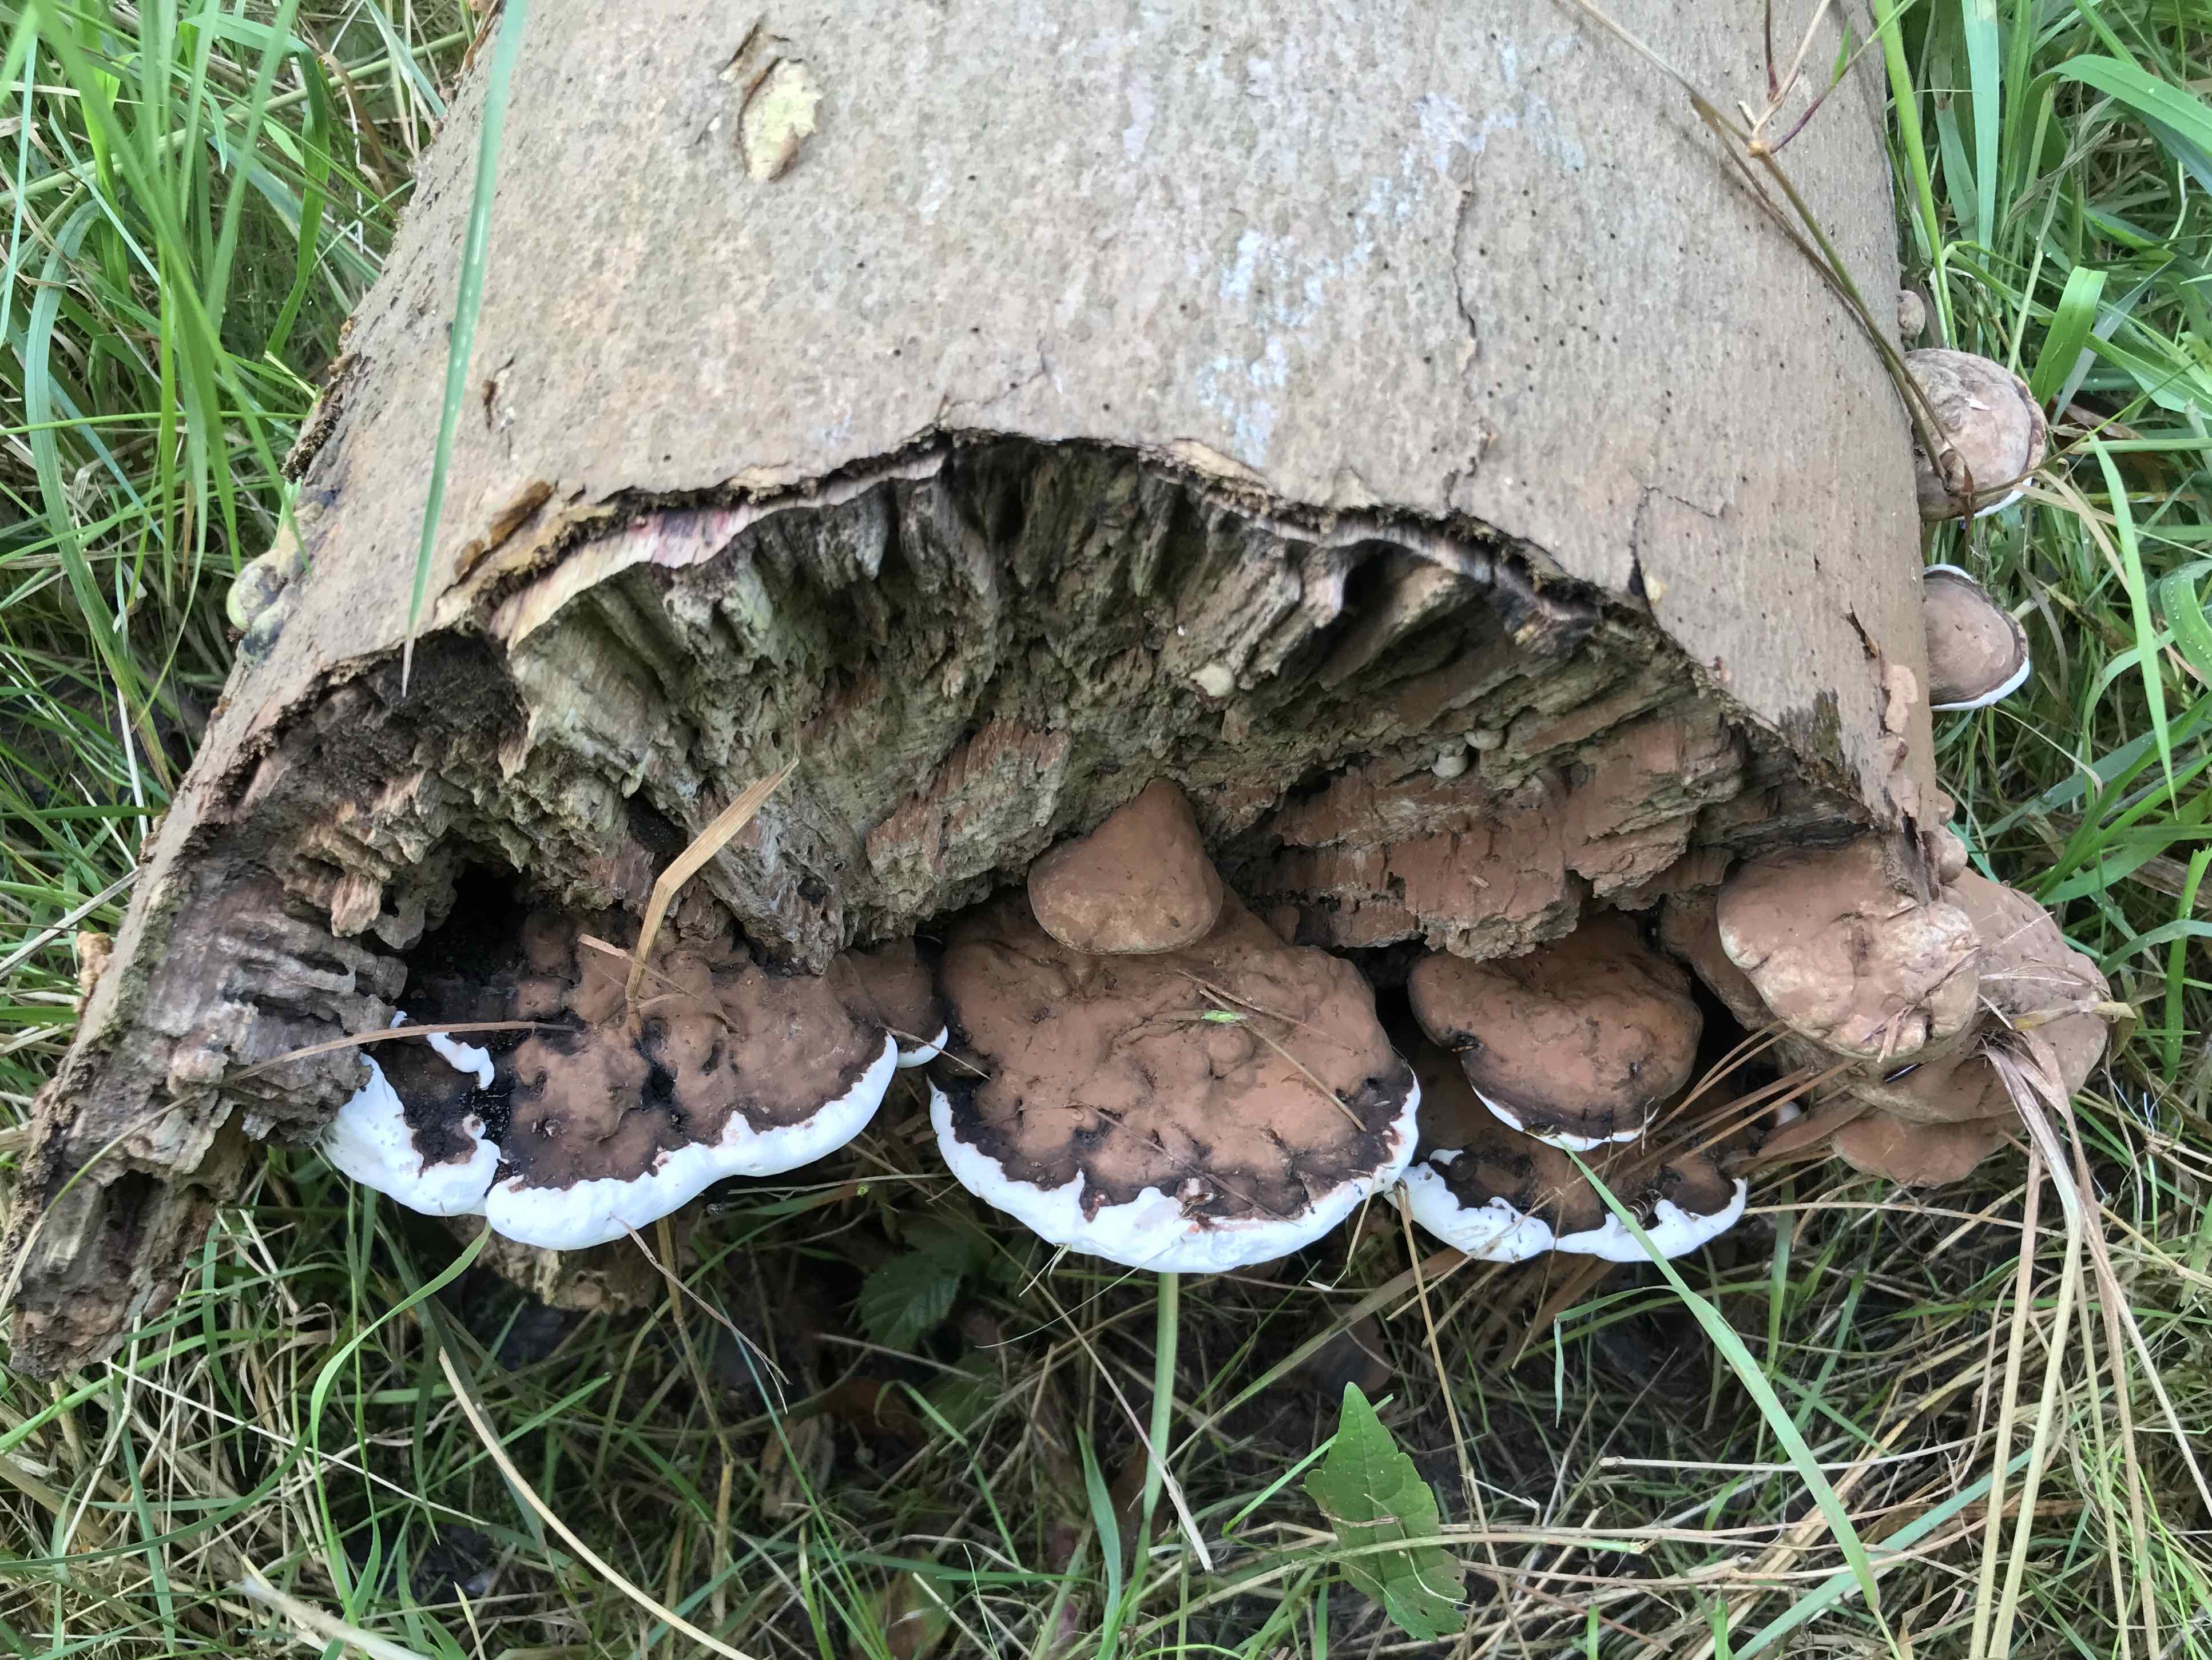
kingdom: Fungi
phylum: Basidiomycota
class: Agaricomycetes
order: Polyporales
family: Polyporaceae
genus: Ganoderma
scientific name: Ganoderma applanatum
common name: flad lakporesvamp
